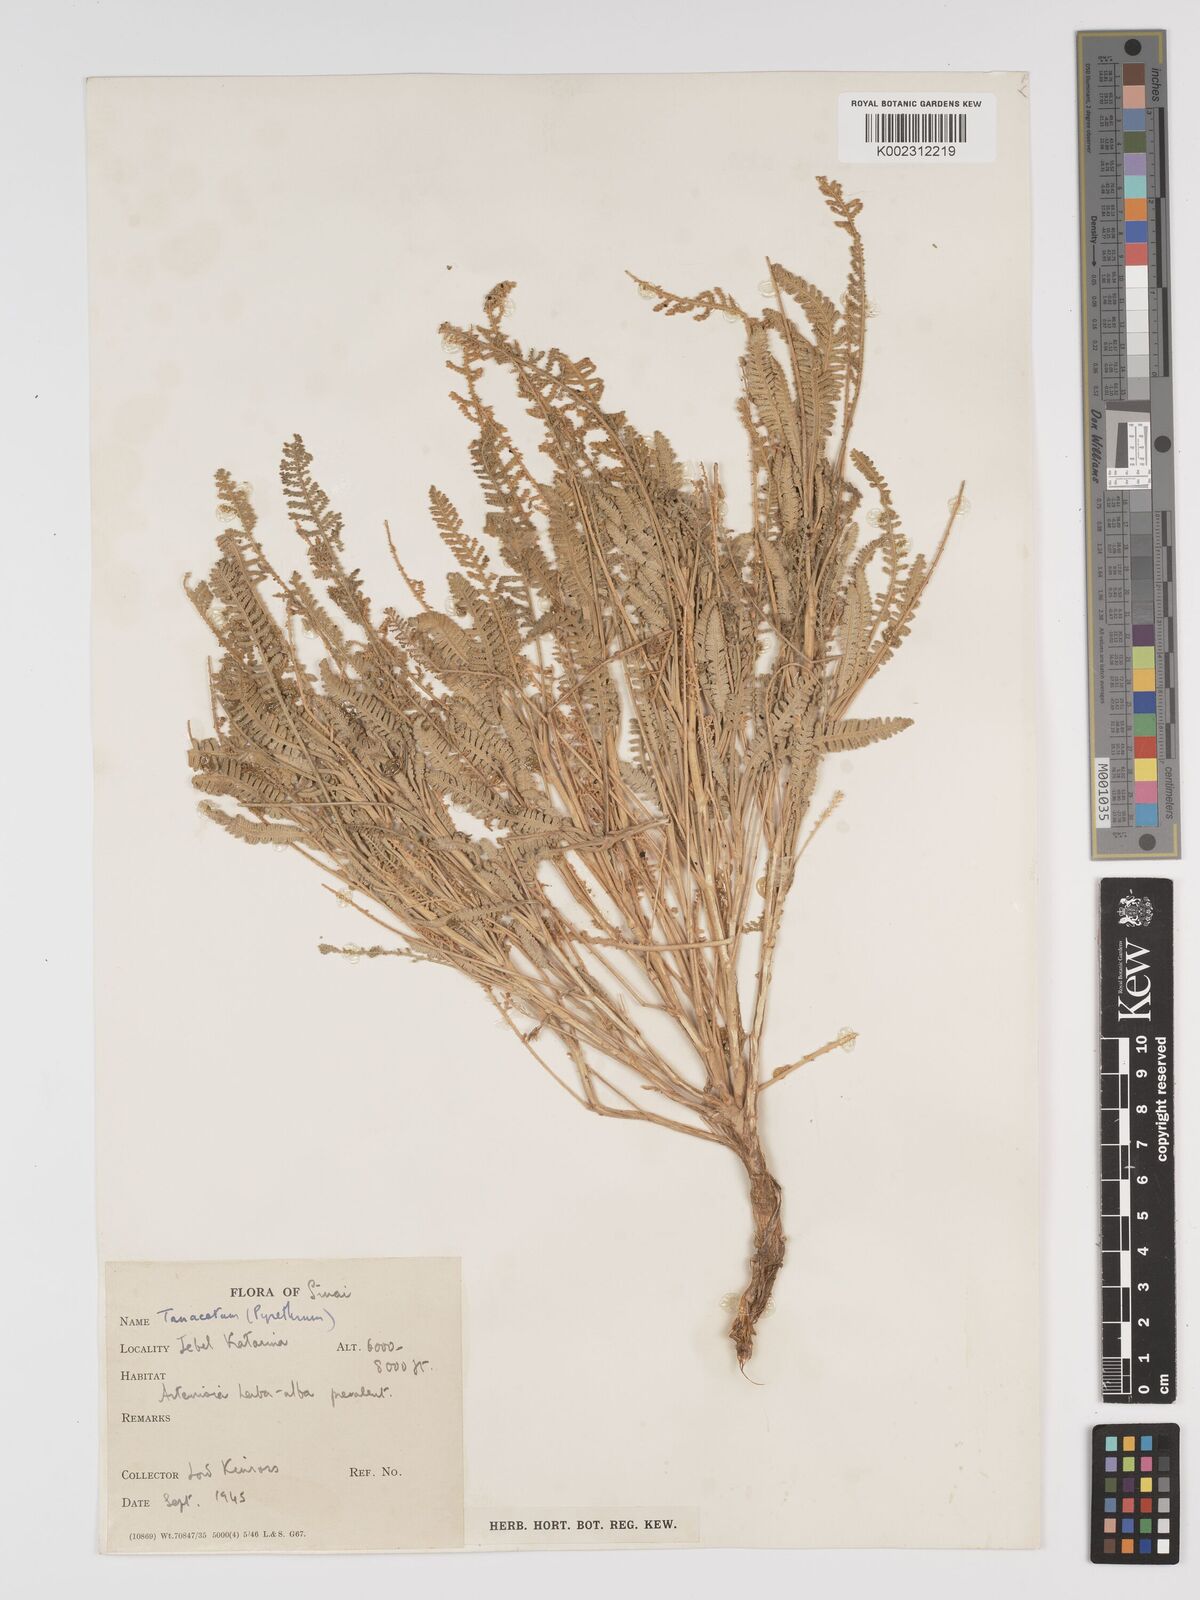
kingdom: Plantae
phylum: Tracheophyta
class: Magnoliopsida
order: Asterales
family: Asteraceae
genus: Tanacetum
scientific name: Tanacetum
